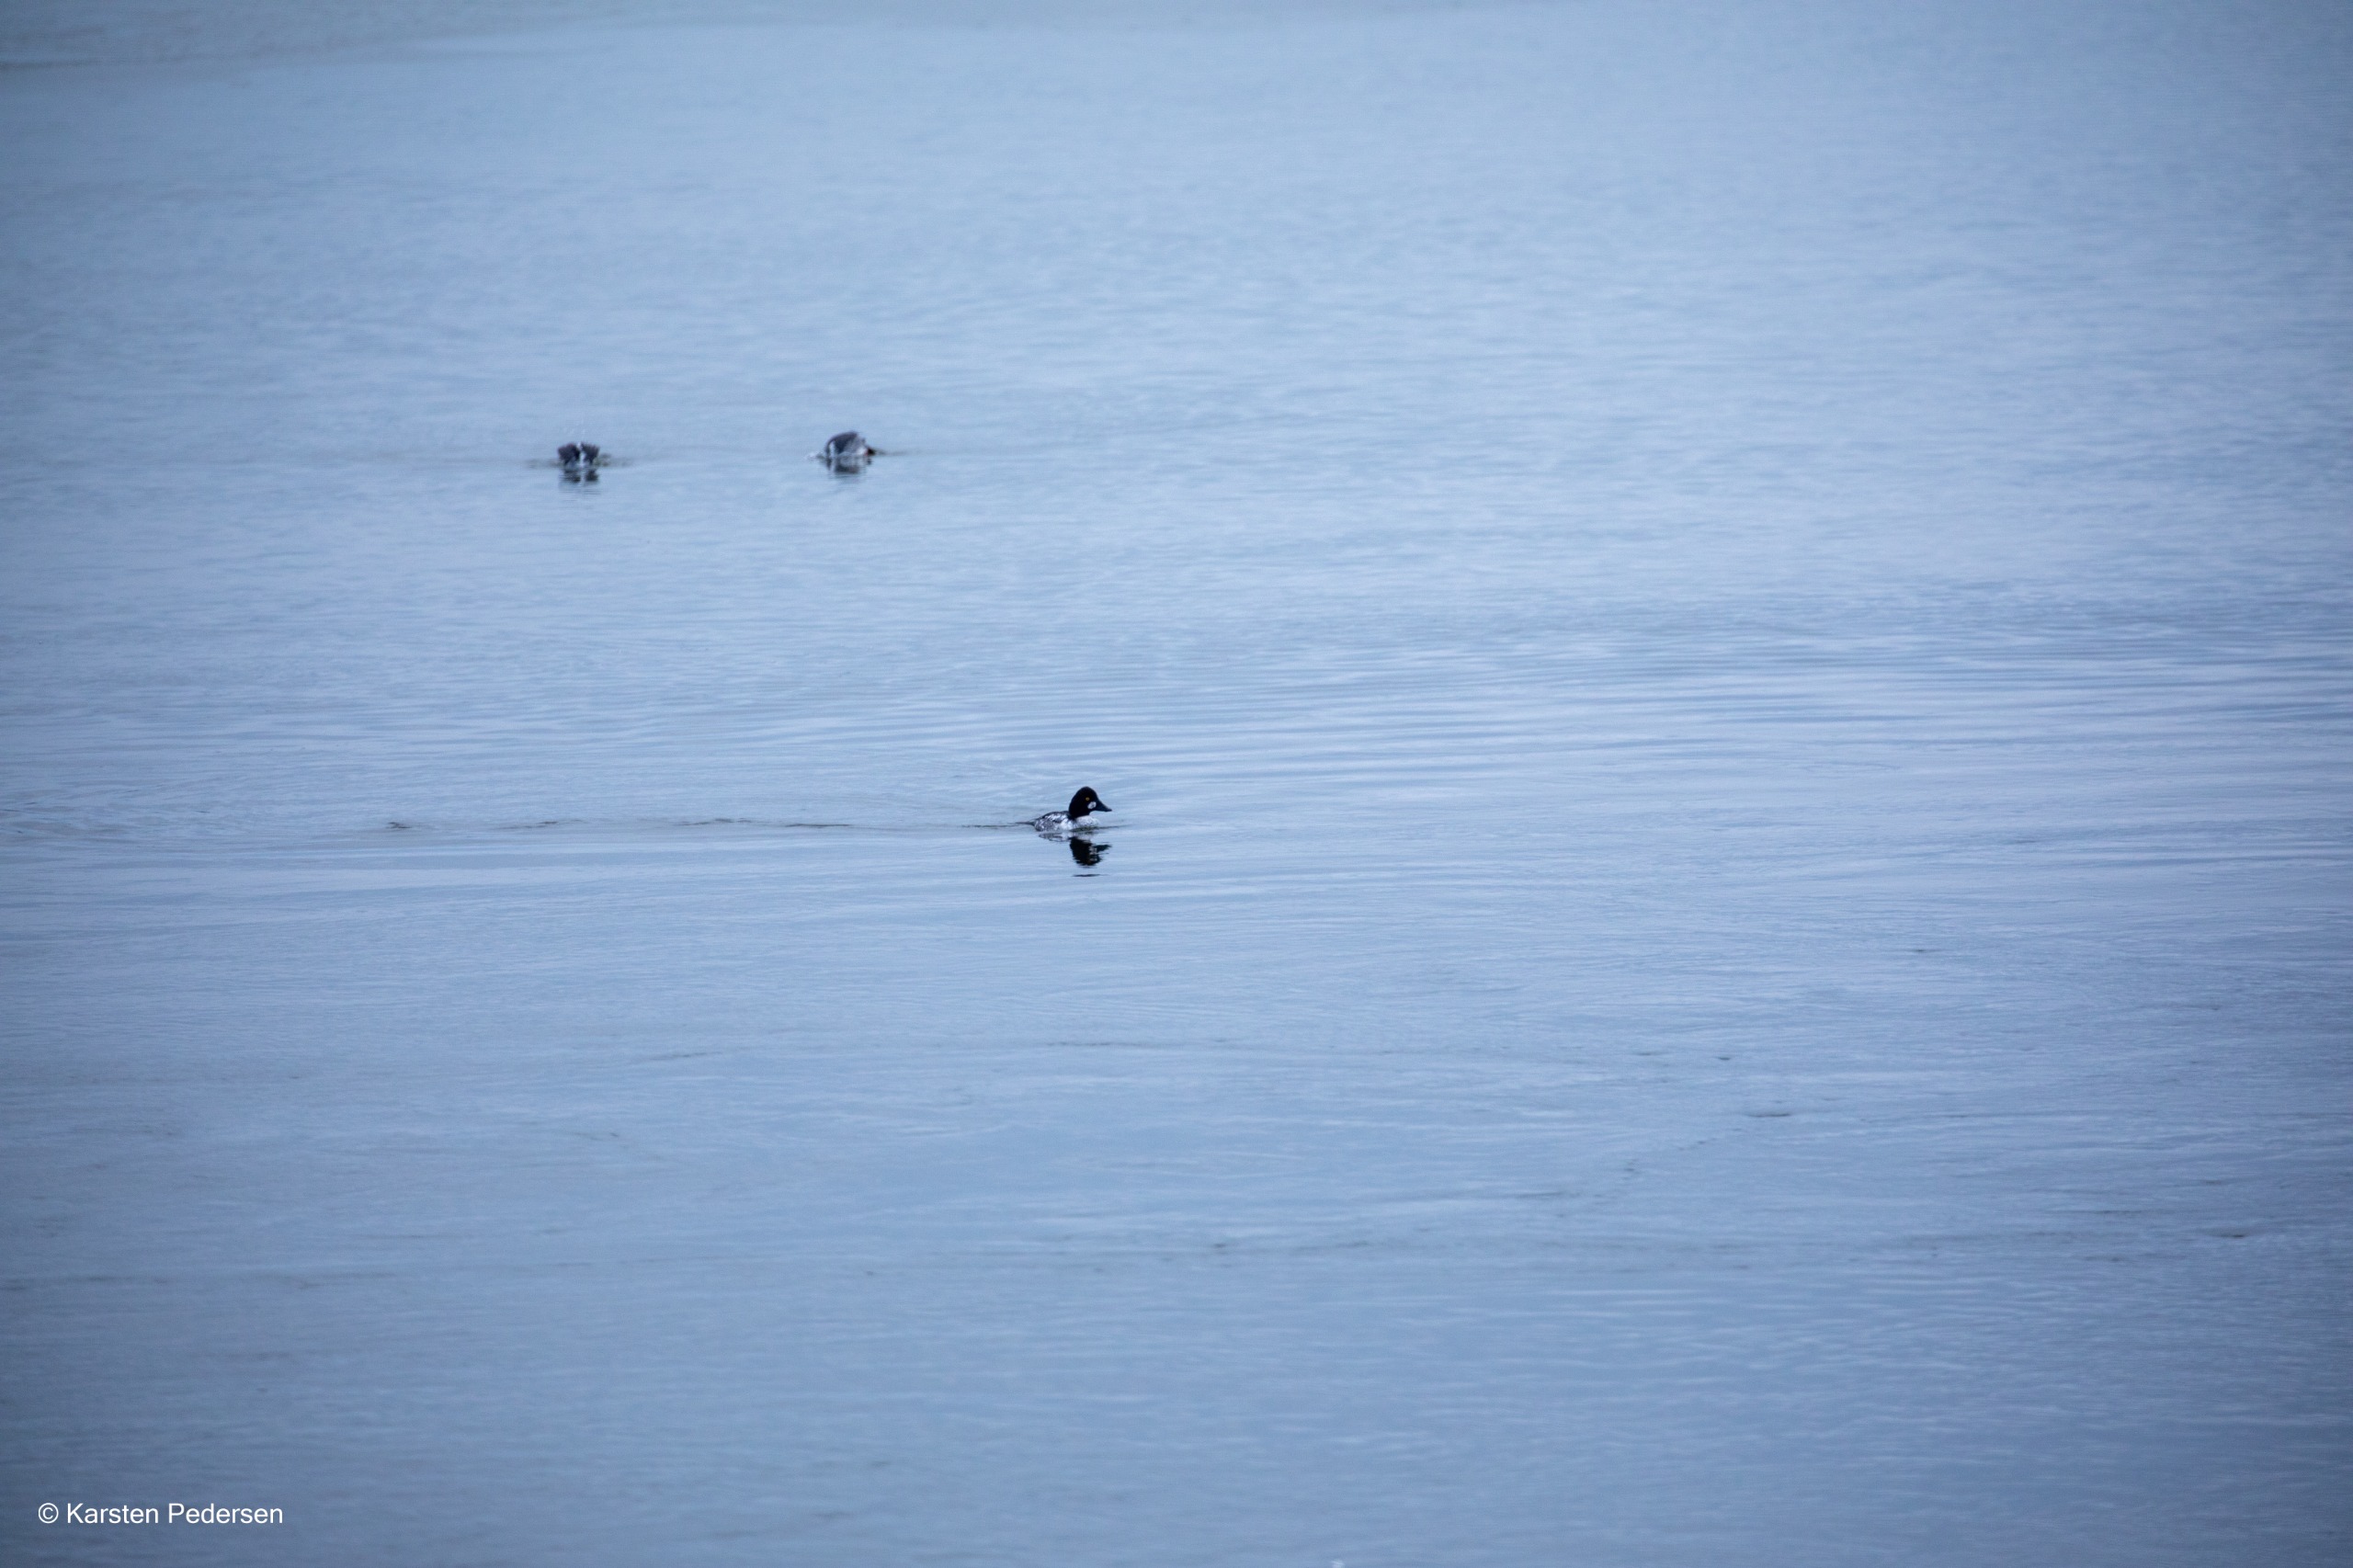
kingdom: Animalia
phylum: Chordata
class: Aves
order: Anseriformes
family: Anatidae
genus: Bucephala
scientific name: Bucephala clangula
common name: Hvinand
